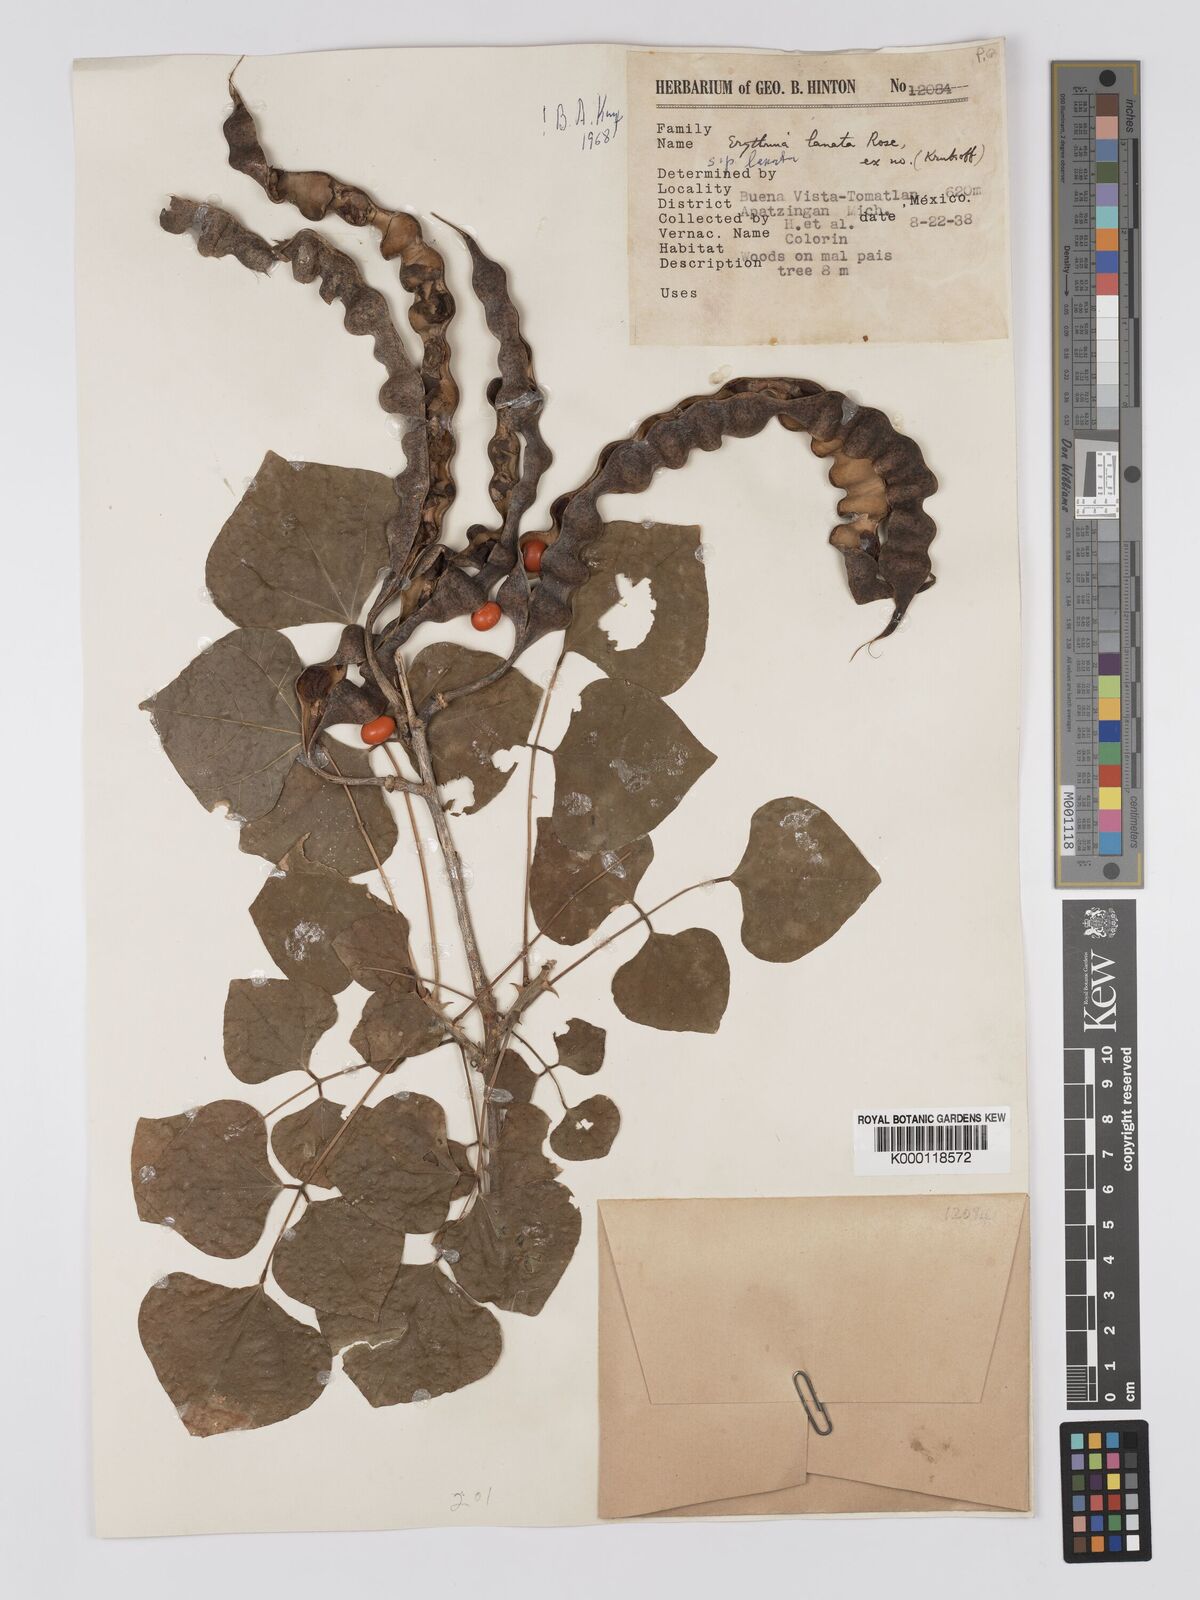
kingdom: Plantae
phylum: Tracheophyta
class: Magnoliopsida
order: Fabales
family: Fabaceae
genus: Erythrina
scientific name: Erythrina lanata
